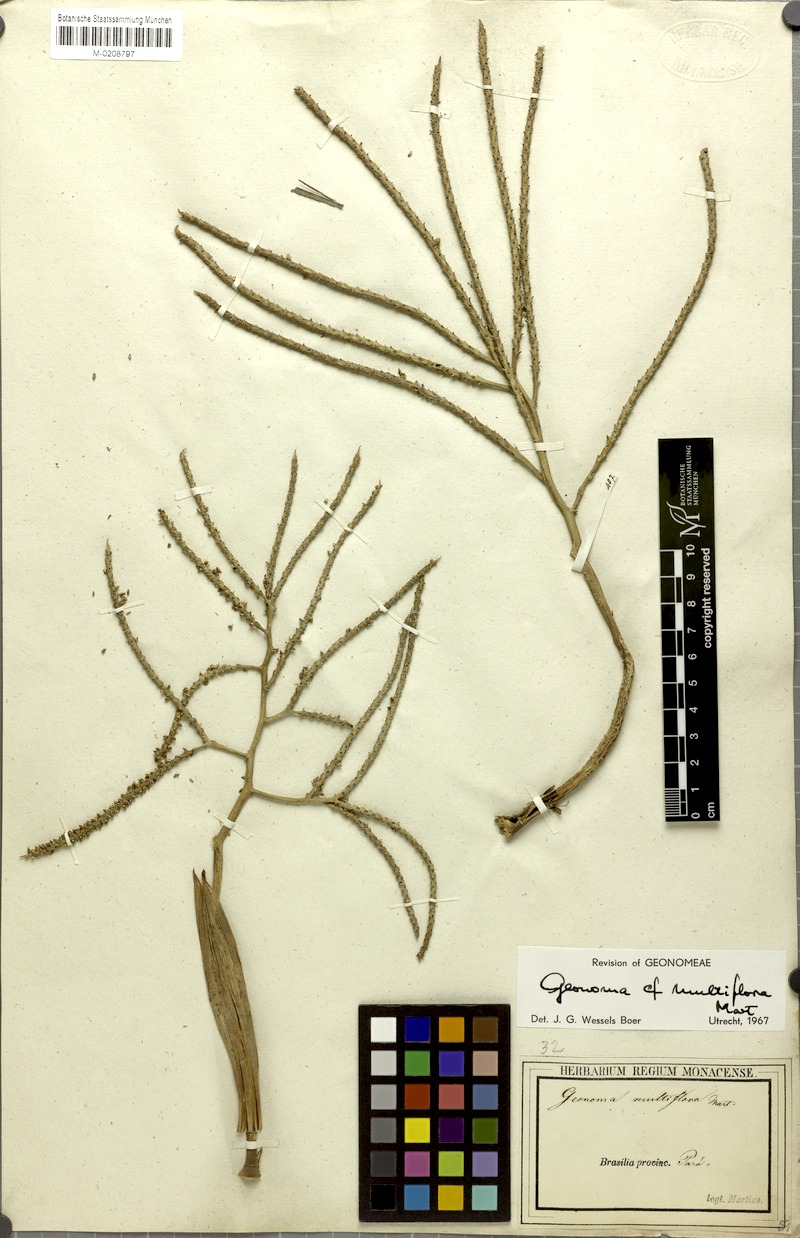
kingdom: Plantae
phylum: Tracheophyta
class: Liliopsida
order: Arecales
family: Arecaceae
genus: Geonoma
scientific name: Geonoma maxima
